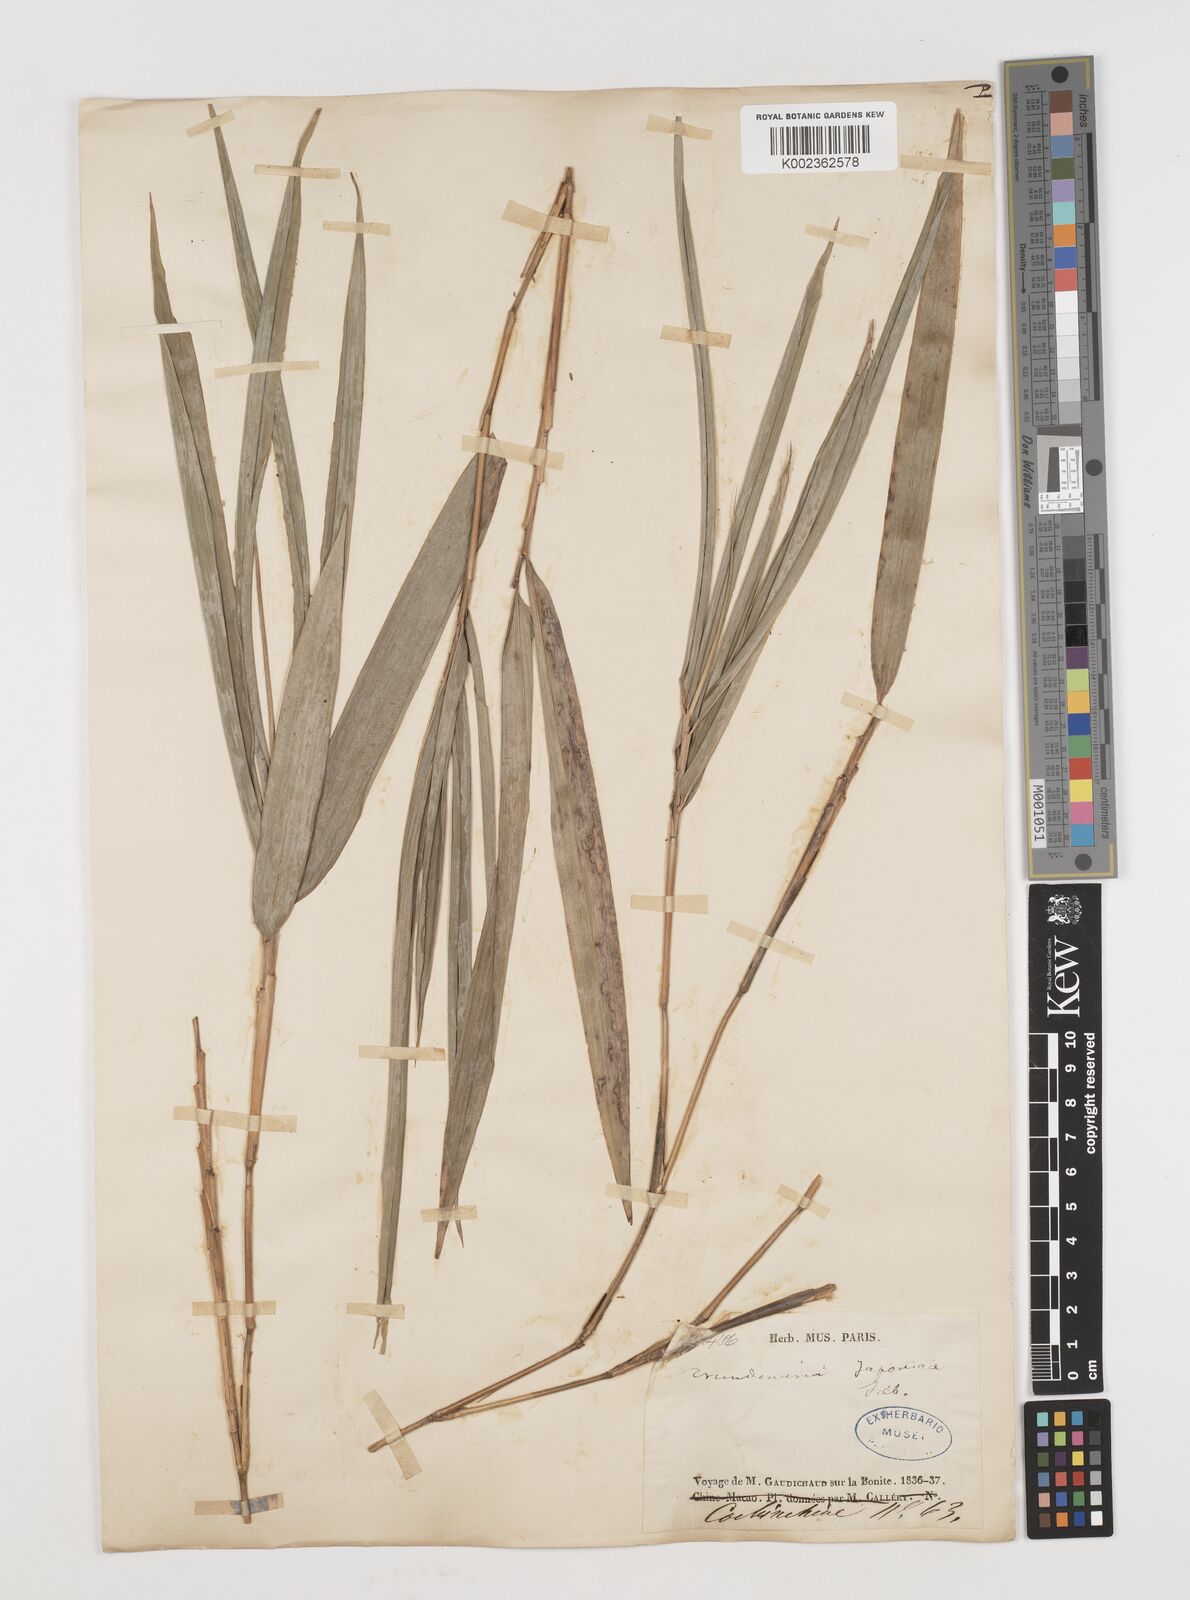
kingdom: Plantae
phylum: Tracheophyta
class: Liliopsida
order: Poales
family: Poaceae
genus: Pseudosasa
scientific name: Pseudosasa japonica
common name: Arrow bamboo
